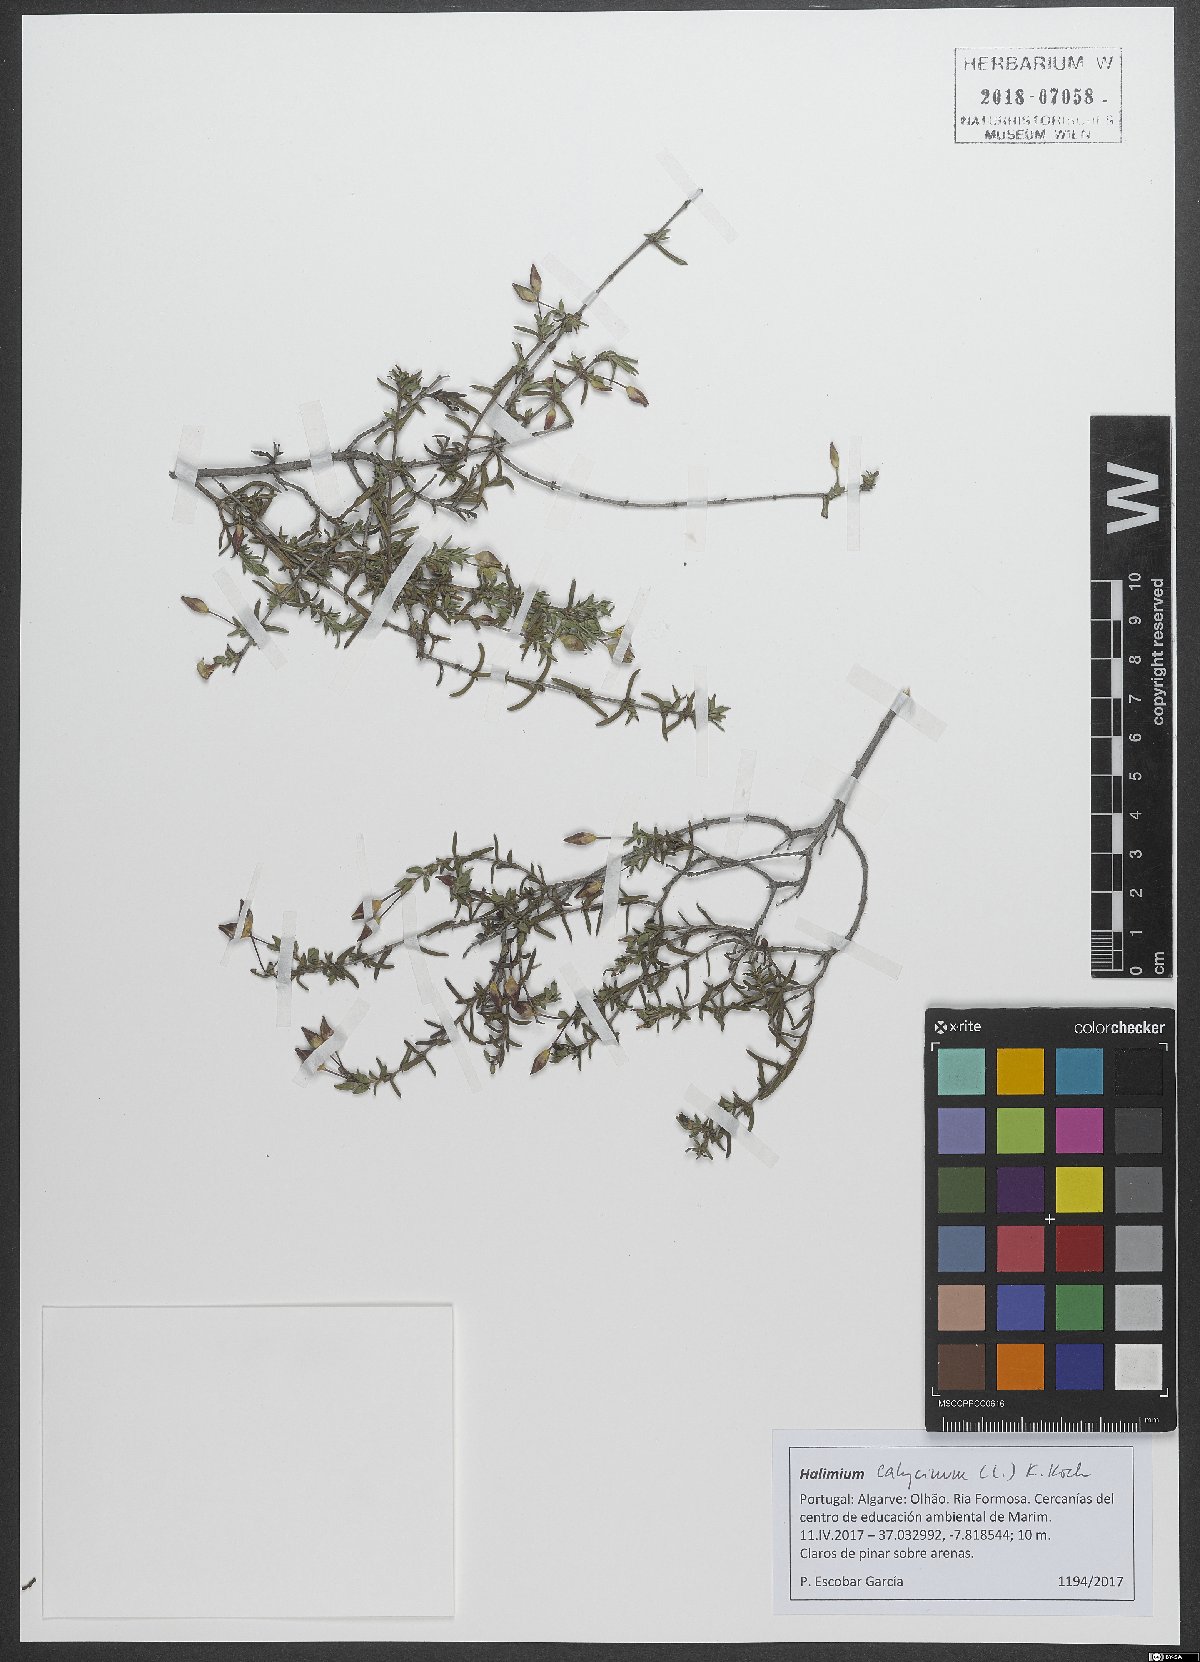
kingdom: Plantae
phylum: Tracheophyta
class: Magnoliopsida
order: Malvales
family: Cistaceae
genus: Halimium
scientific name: Halimium calycinum
